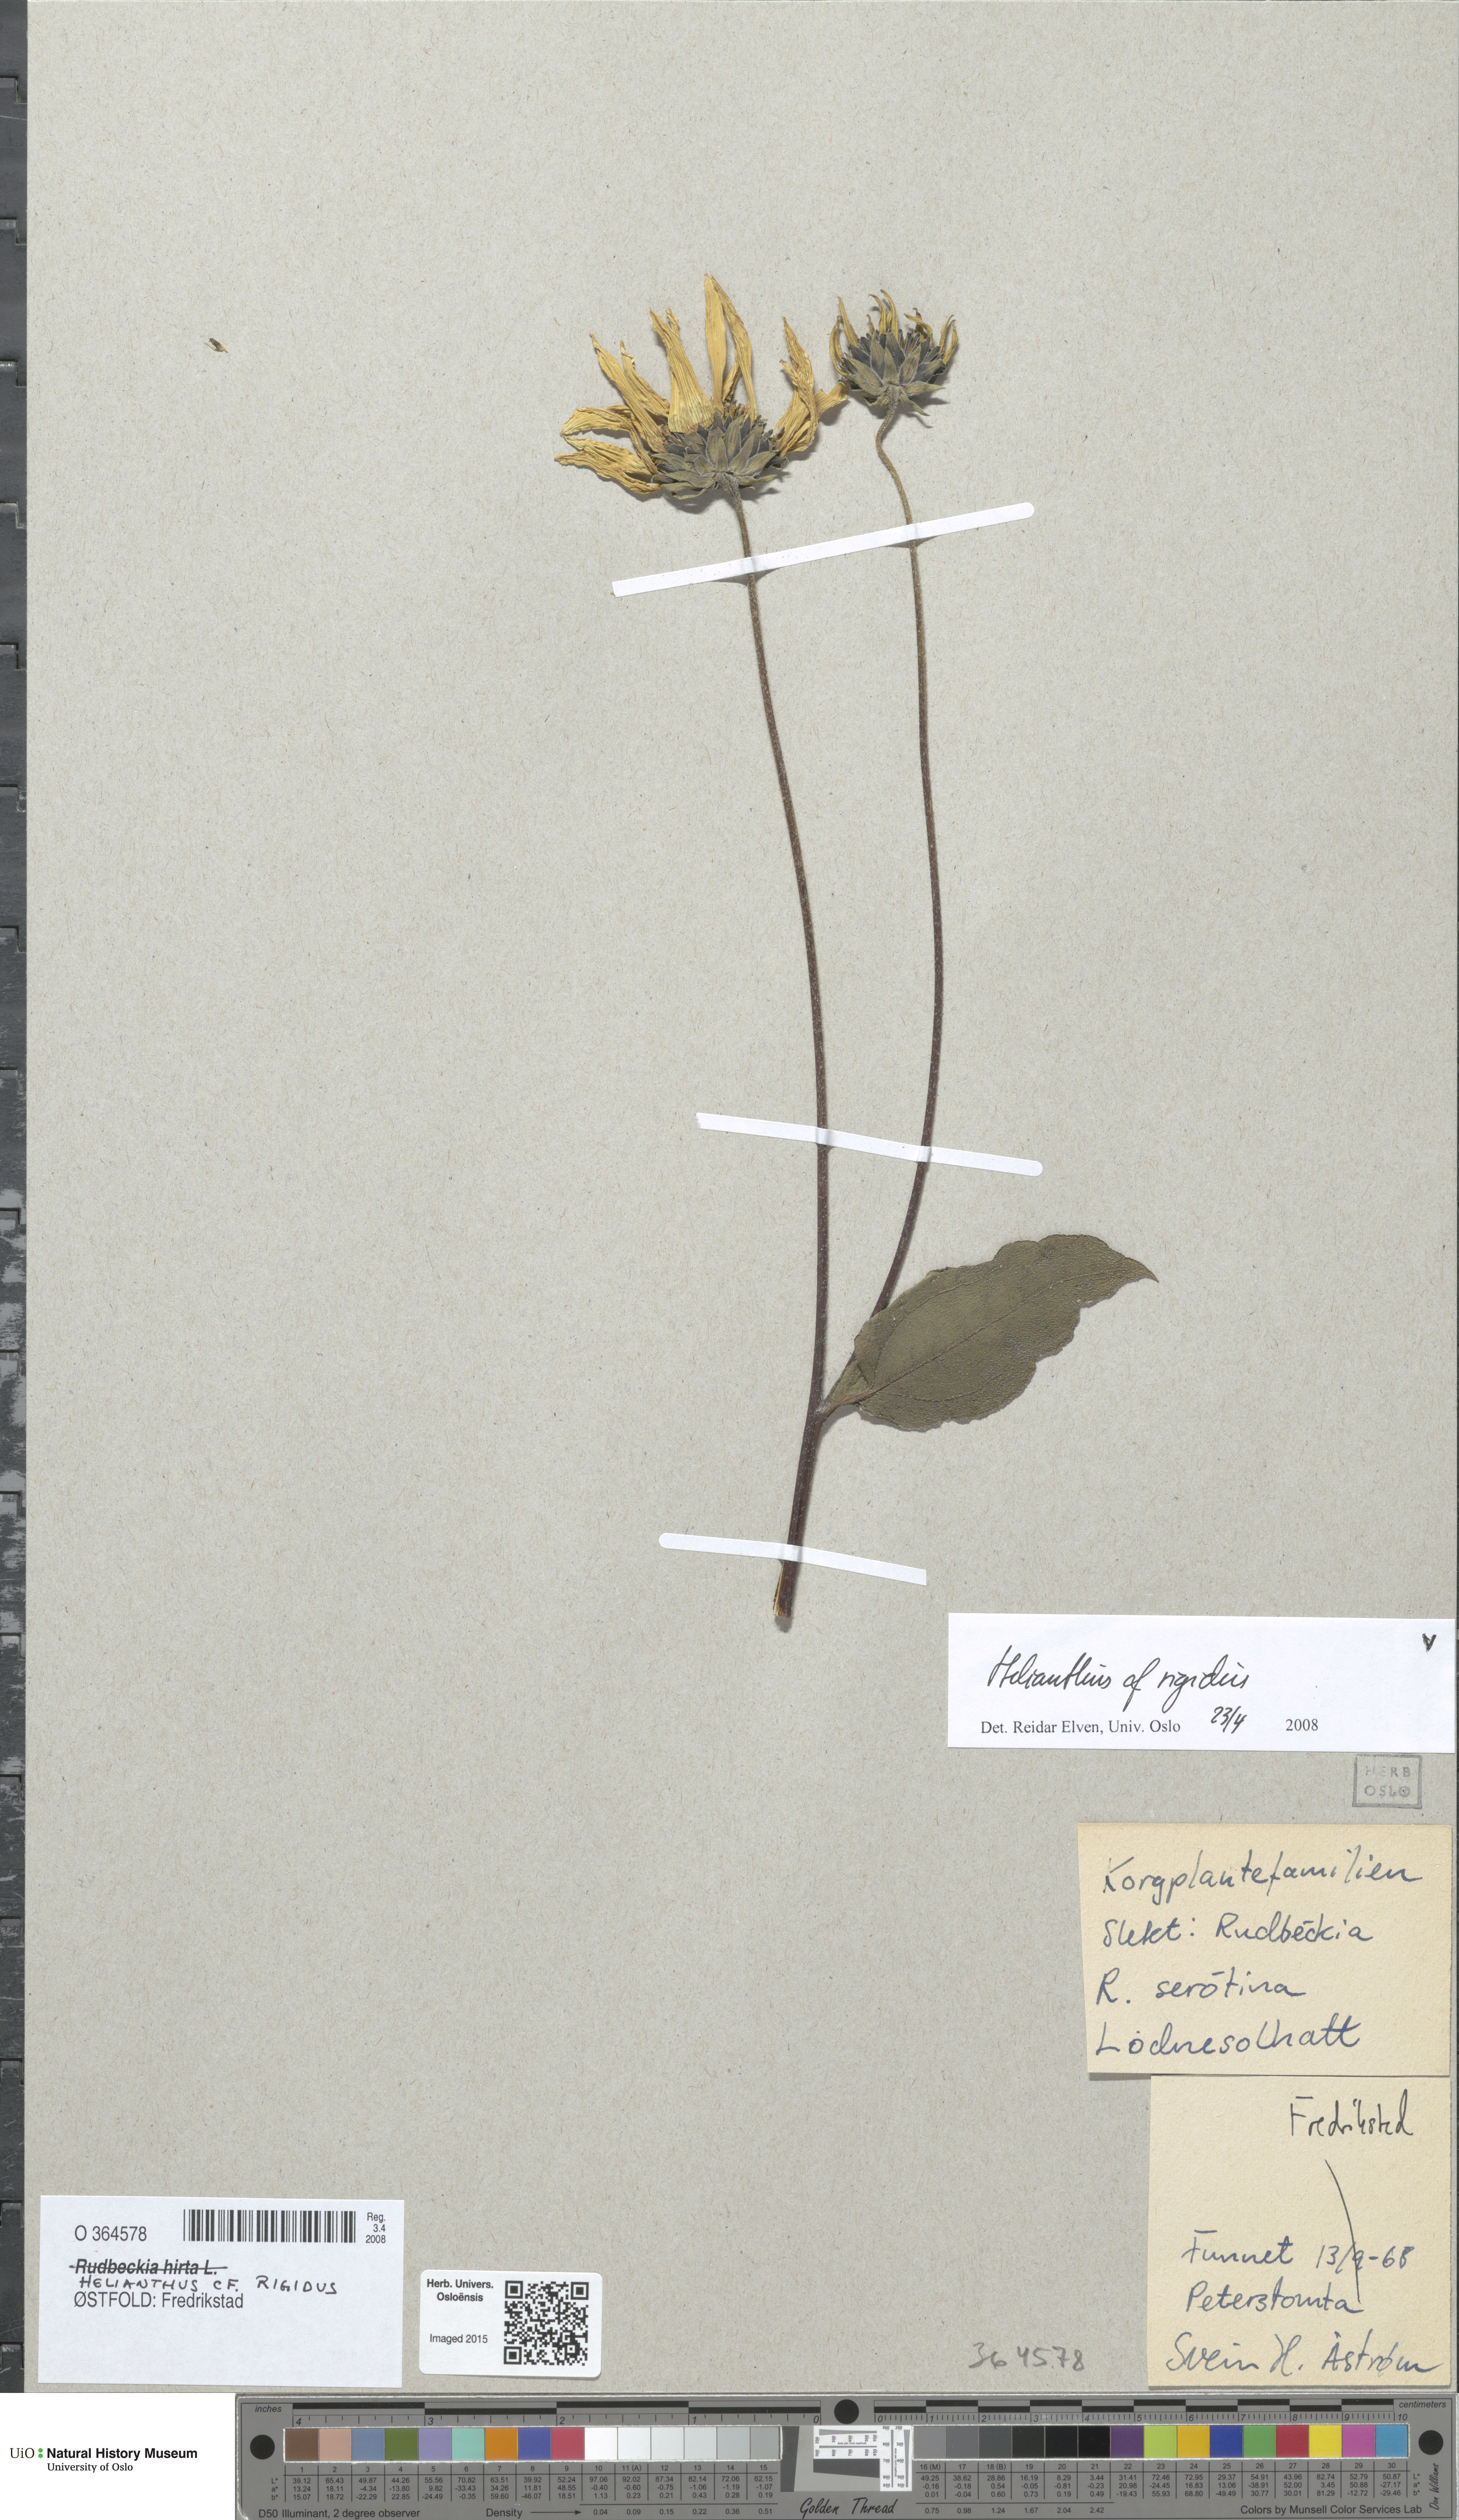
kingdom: Plantae
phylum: Tracheophyta
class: Magnoliopsida
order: Asterales
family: Asteraceae
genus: Helianthus
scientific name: Helianthus laetiflorus
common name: Perennial sunflower
